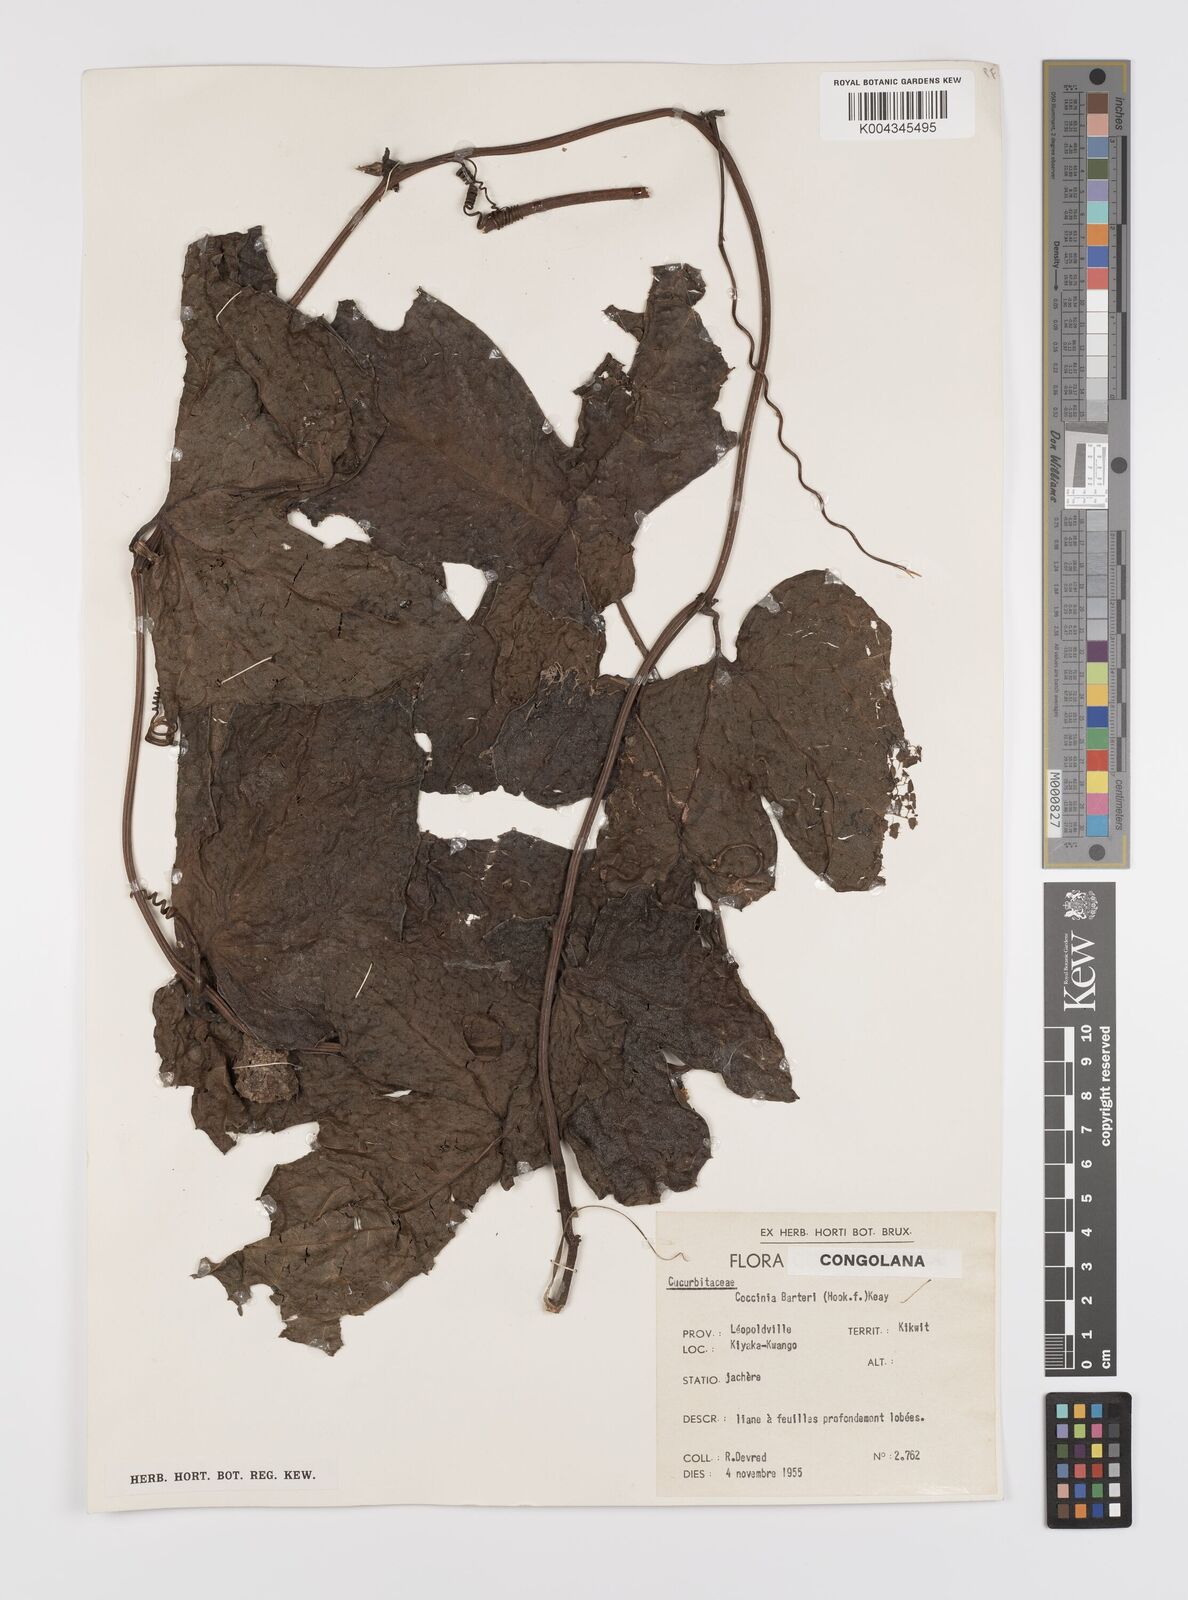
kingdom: Plantae
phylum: Tracheophyta
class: Magnoliopsida
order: Cucurbitales
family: Cucurbitaceae
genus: Coccinia
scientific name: Coccinia barteri
